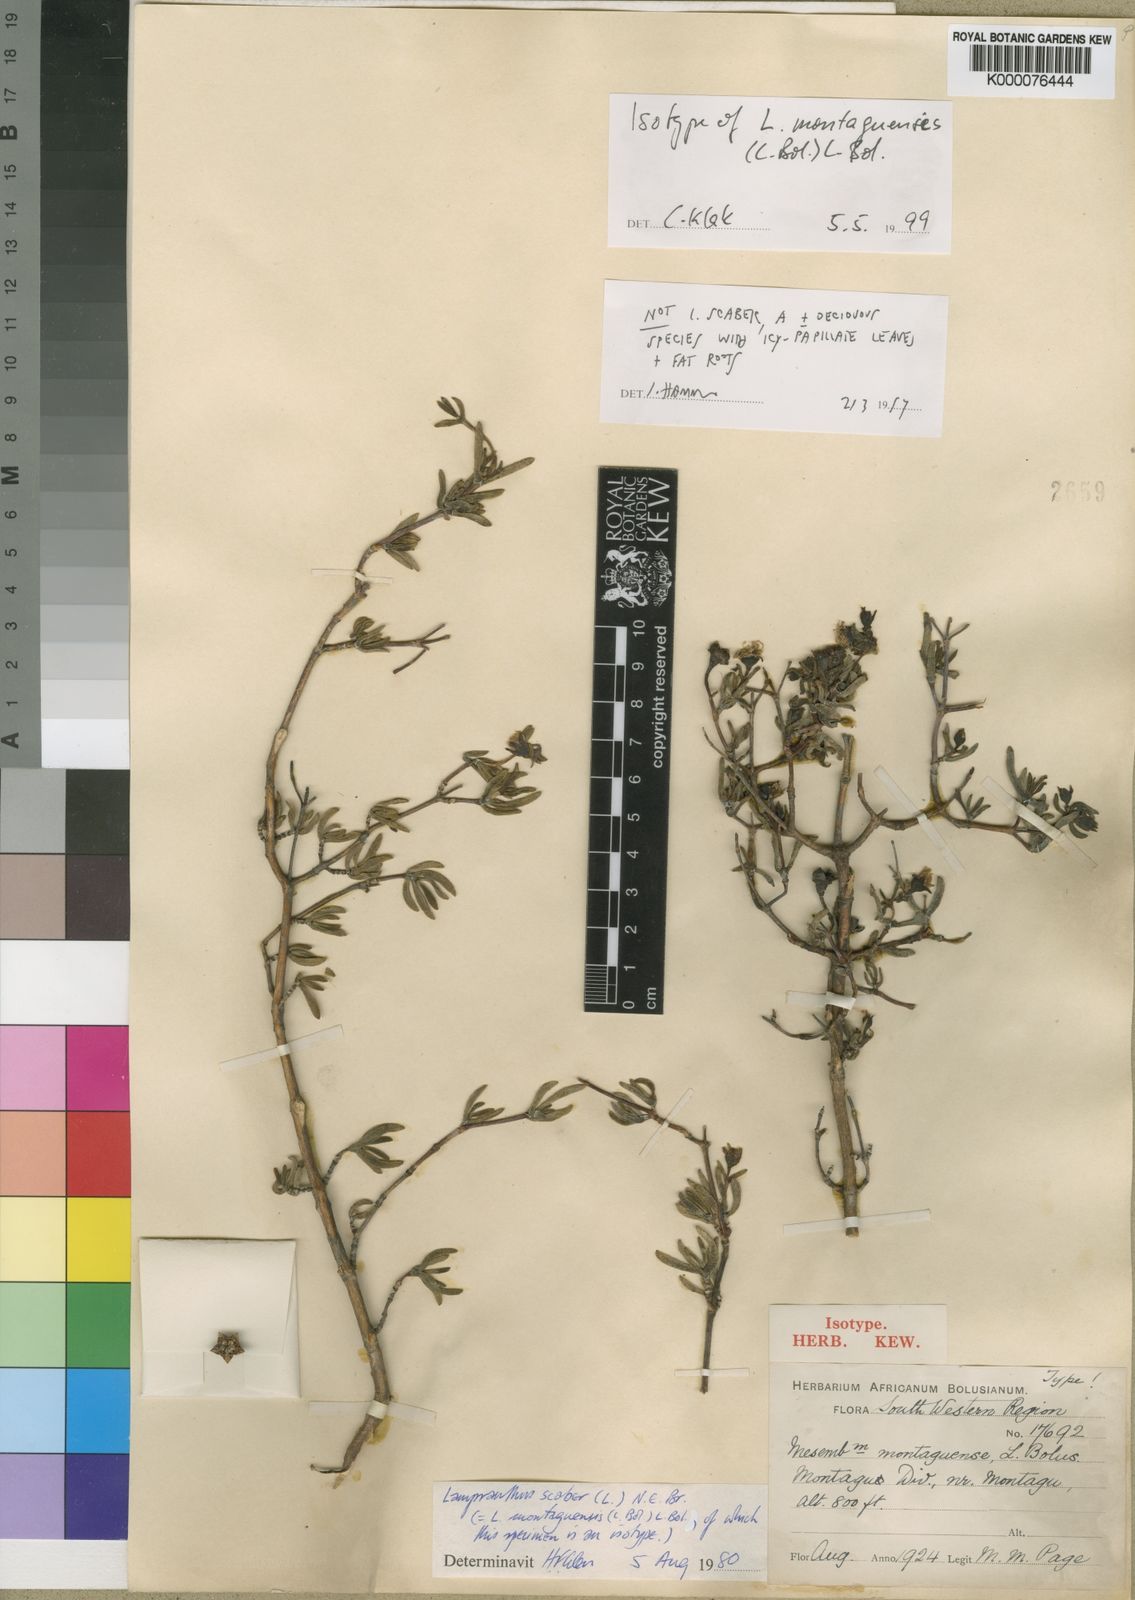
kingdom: Plantae
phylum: Tracheophyta
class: Magnoliopsida
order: Caryophyllales
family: Aizoaceae
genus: Lampranthus
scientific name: Lampranthus montaguensis
